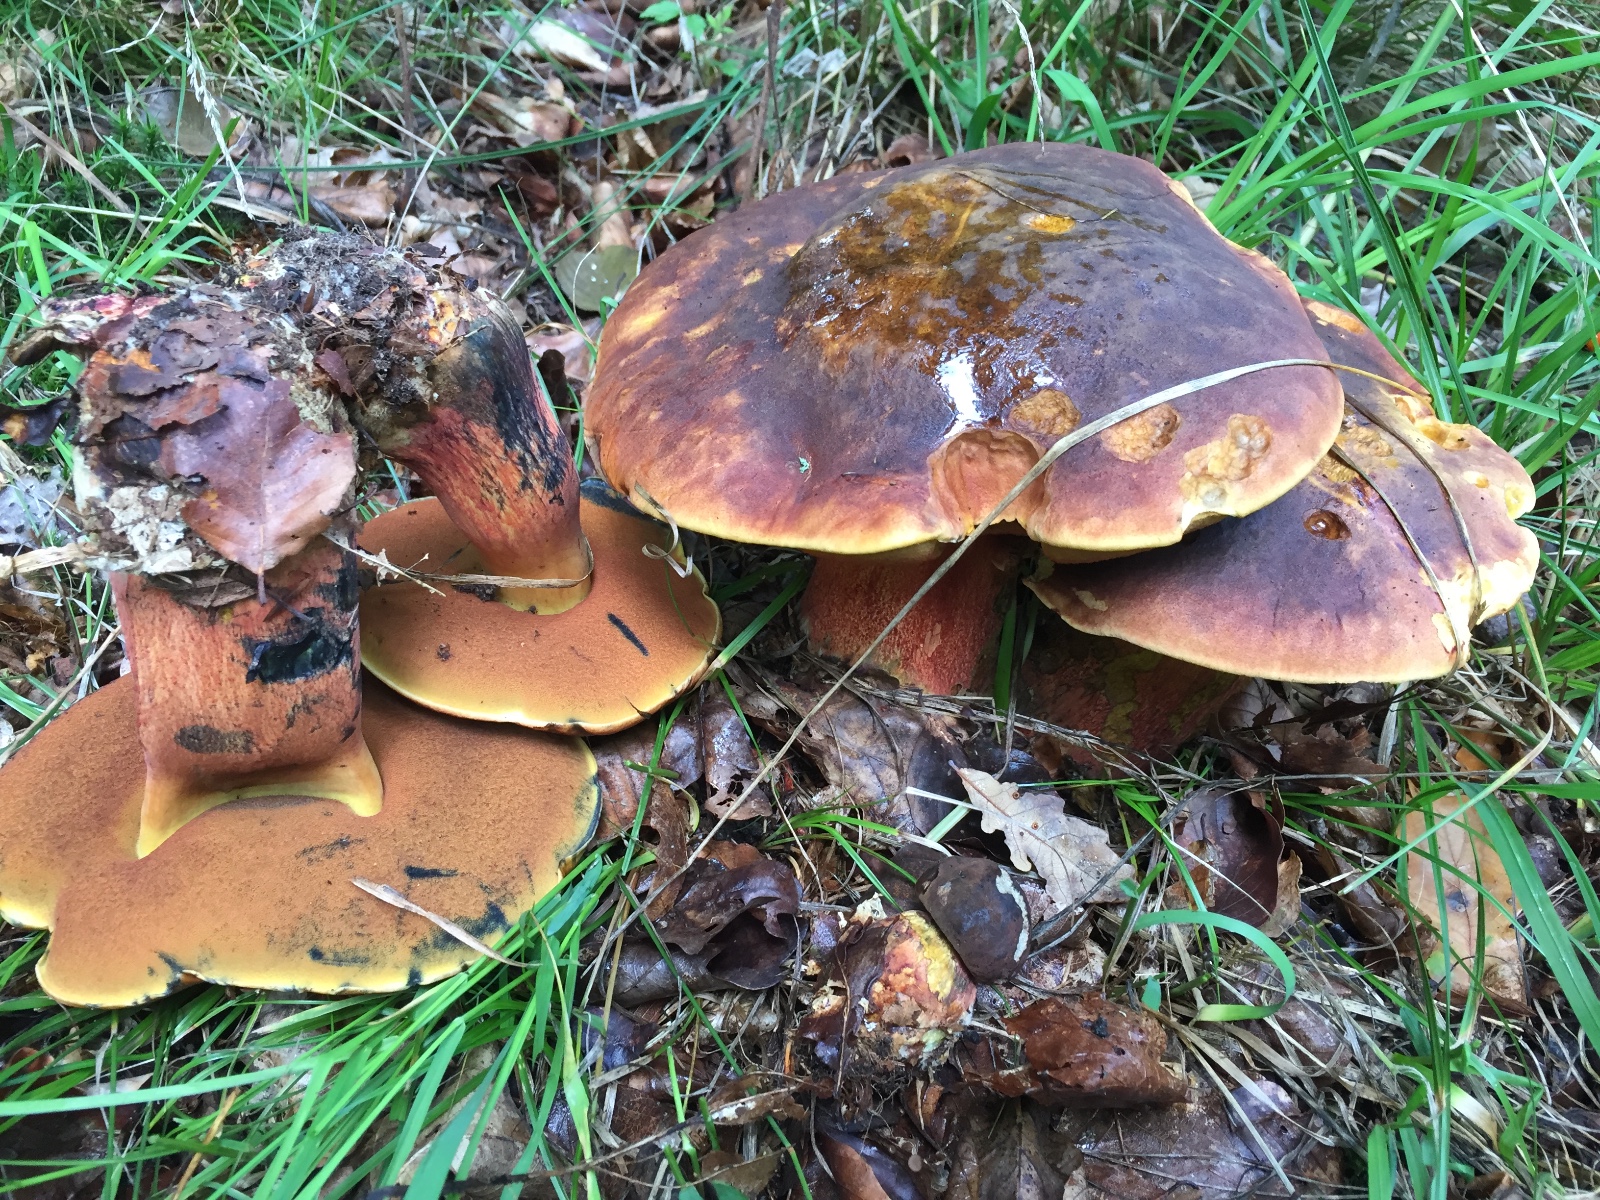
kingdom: Fungi
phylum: Basidiomycota
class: Agaricomycetes
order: Boletales
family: Boletaceae
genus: Neoboletus
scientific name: Neoboletus erythropus
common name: punktstokket indigorørhat
